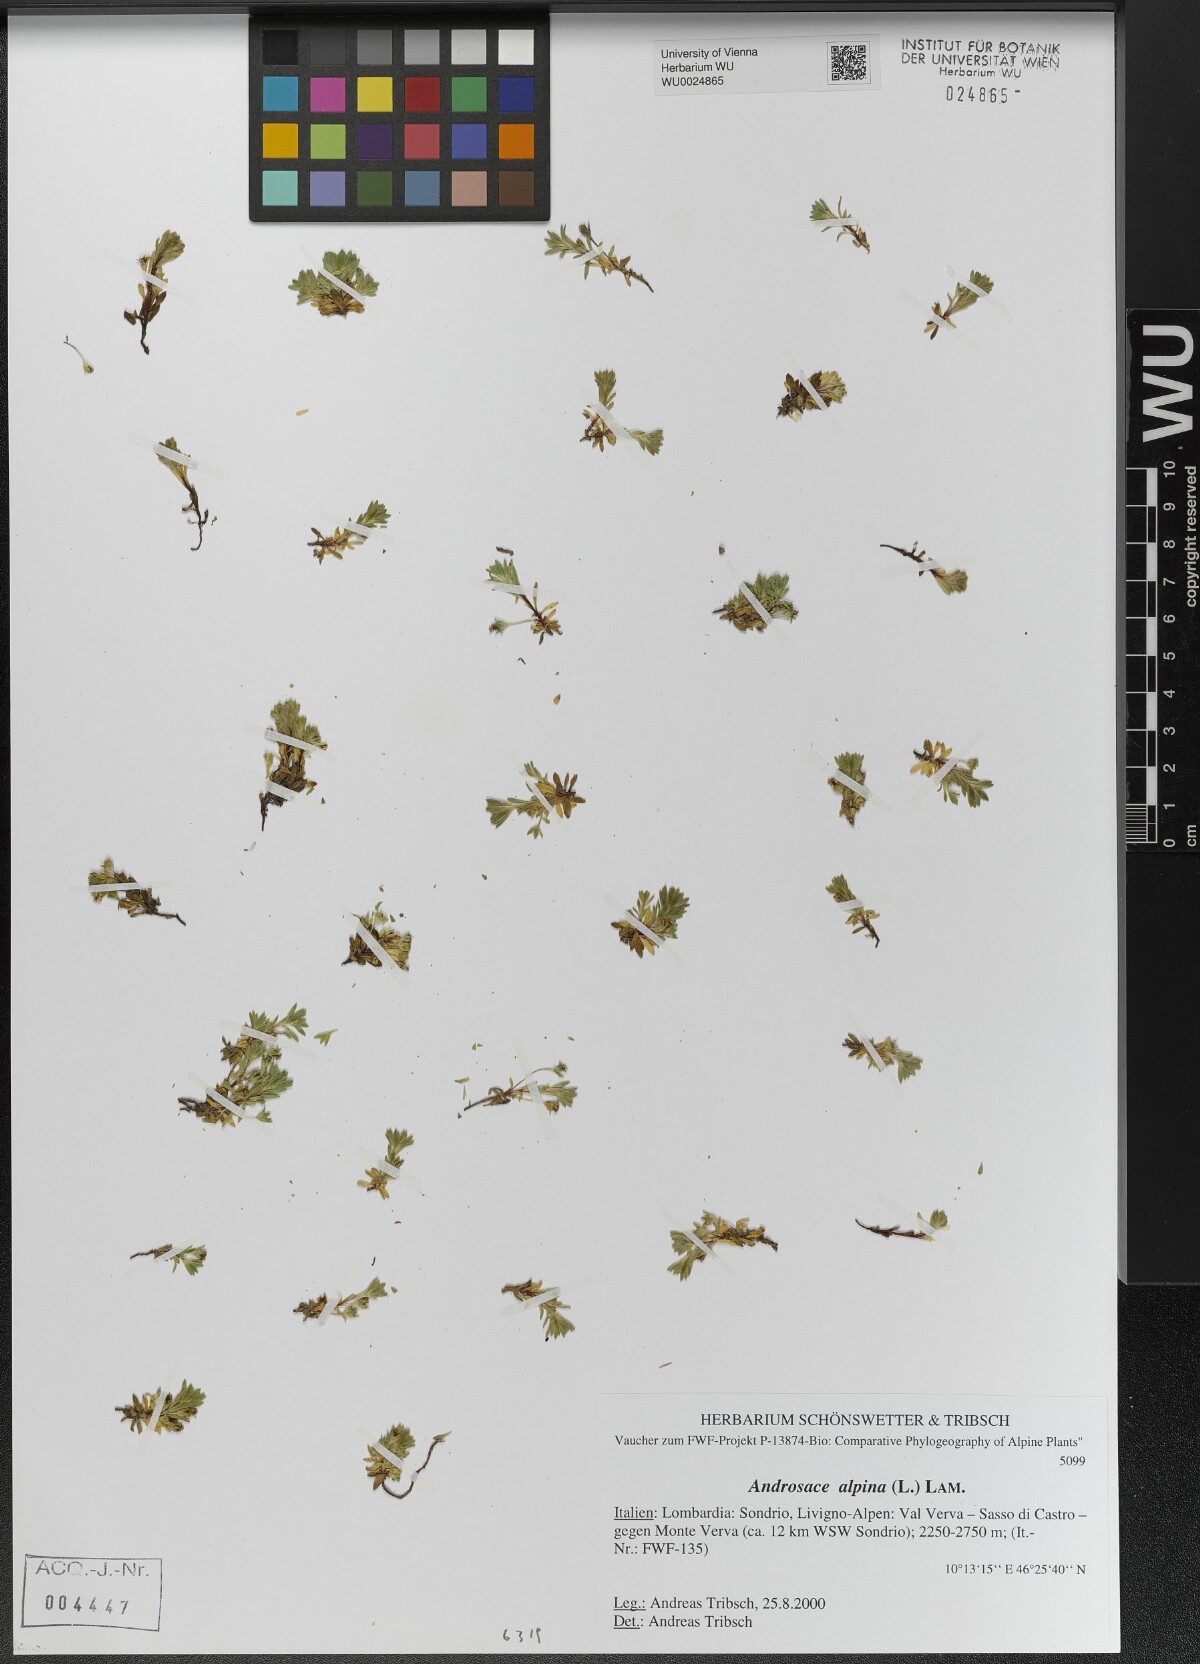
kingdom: Plantae
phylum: Tracheophyta
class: Magnoliopsida
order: Ericales
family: Primulaceae
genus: Androsace
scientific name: Androsace alpina
